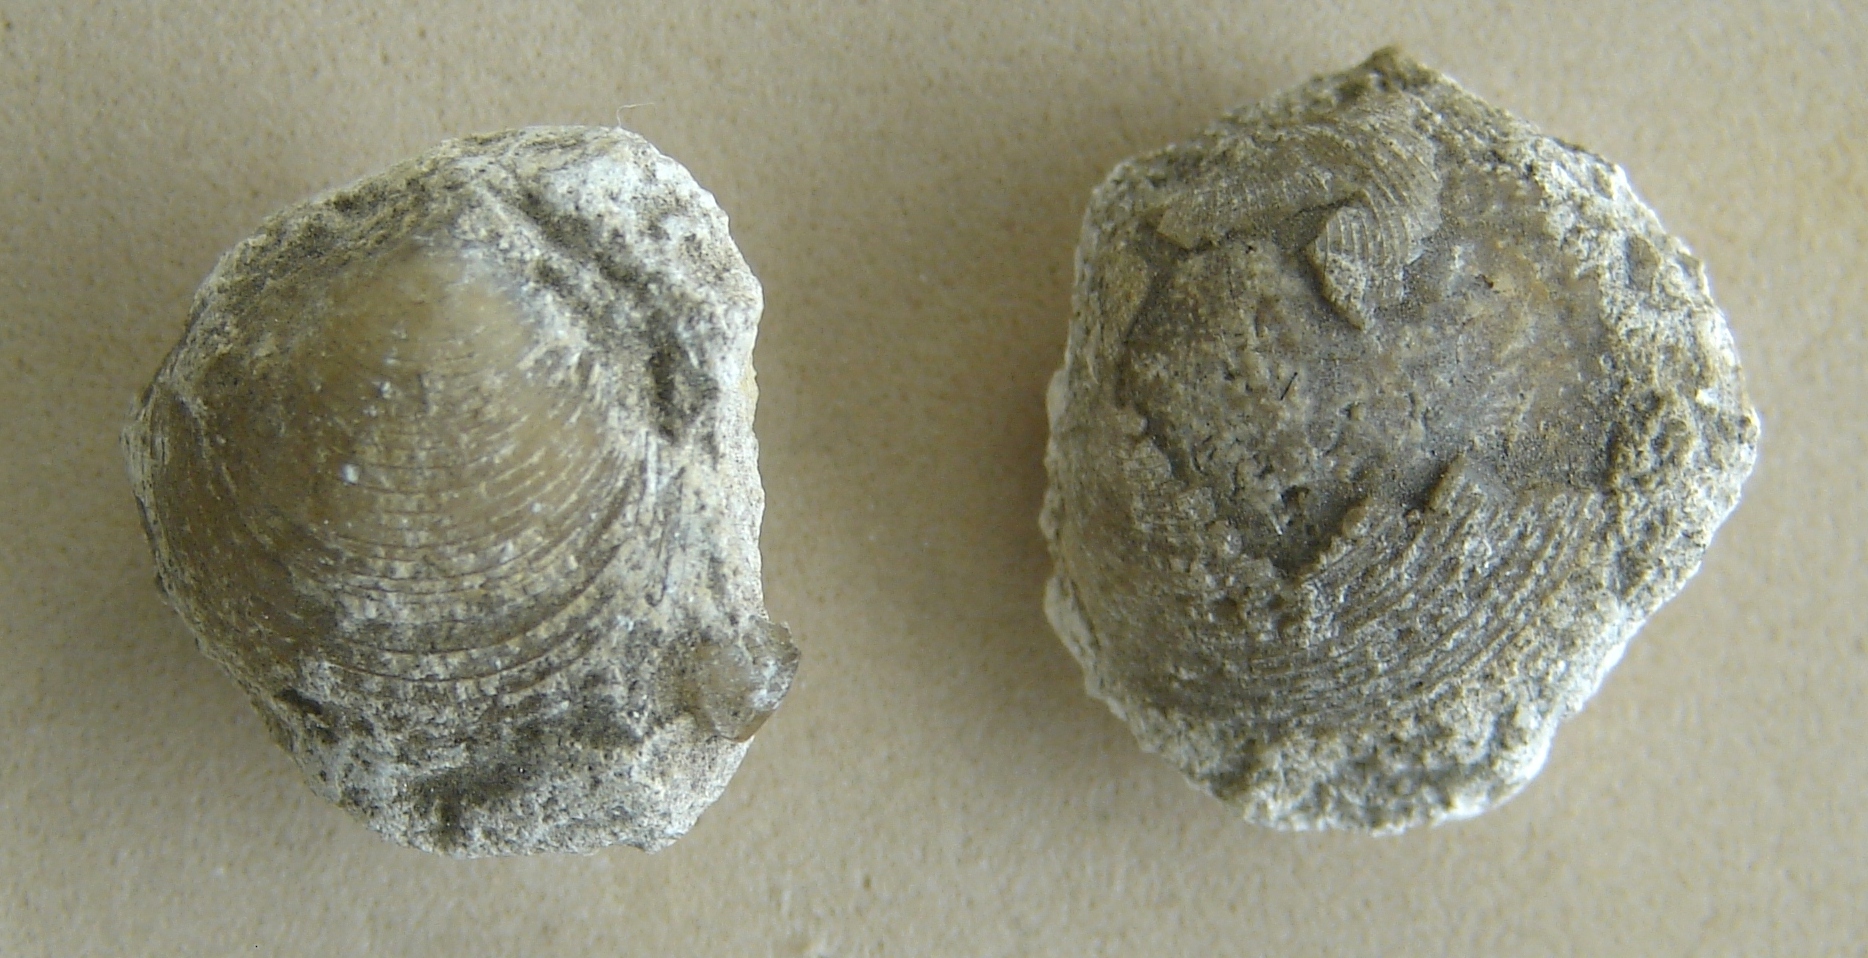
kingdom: Animalia
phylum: Mollusca
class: Bivalvia
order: Lucinida
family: Lucinidae
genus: Mesolinga
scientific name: Mesolinga typica
